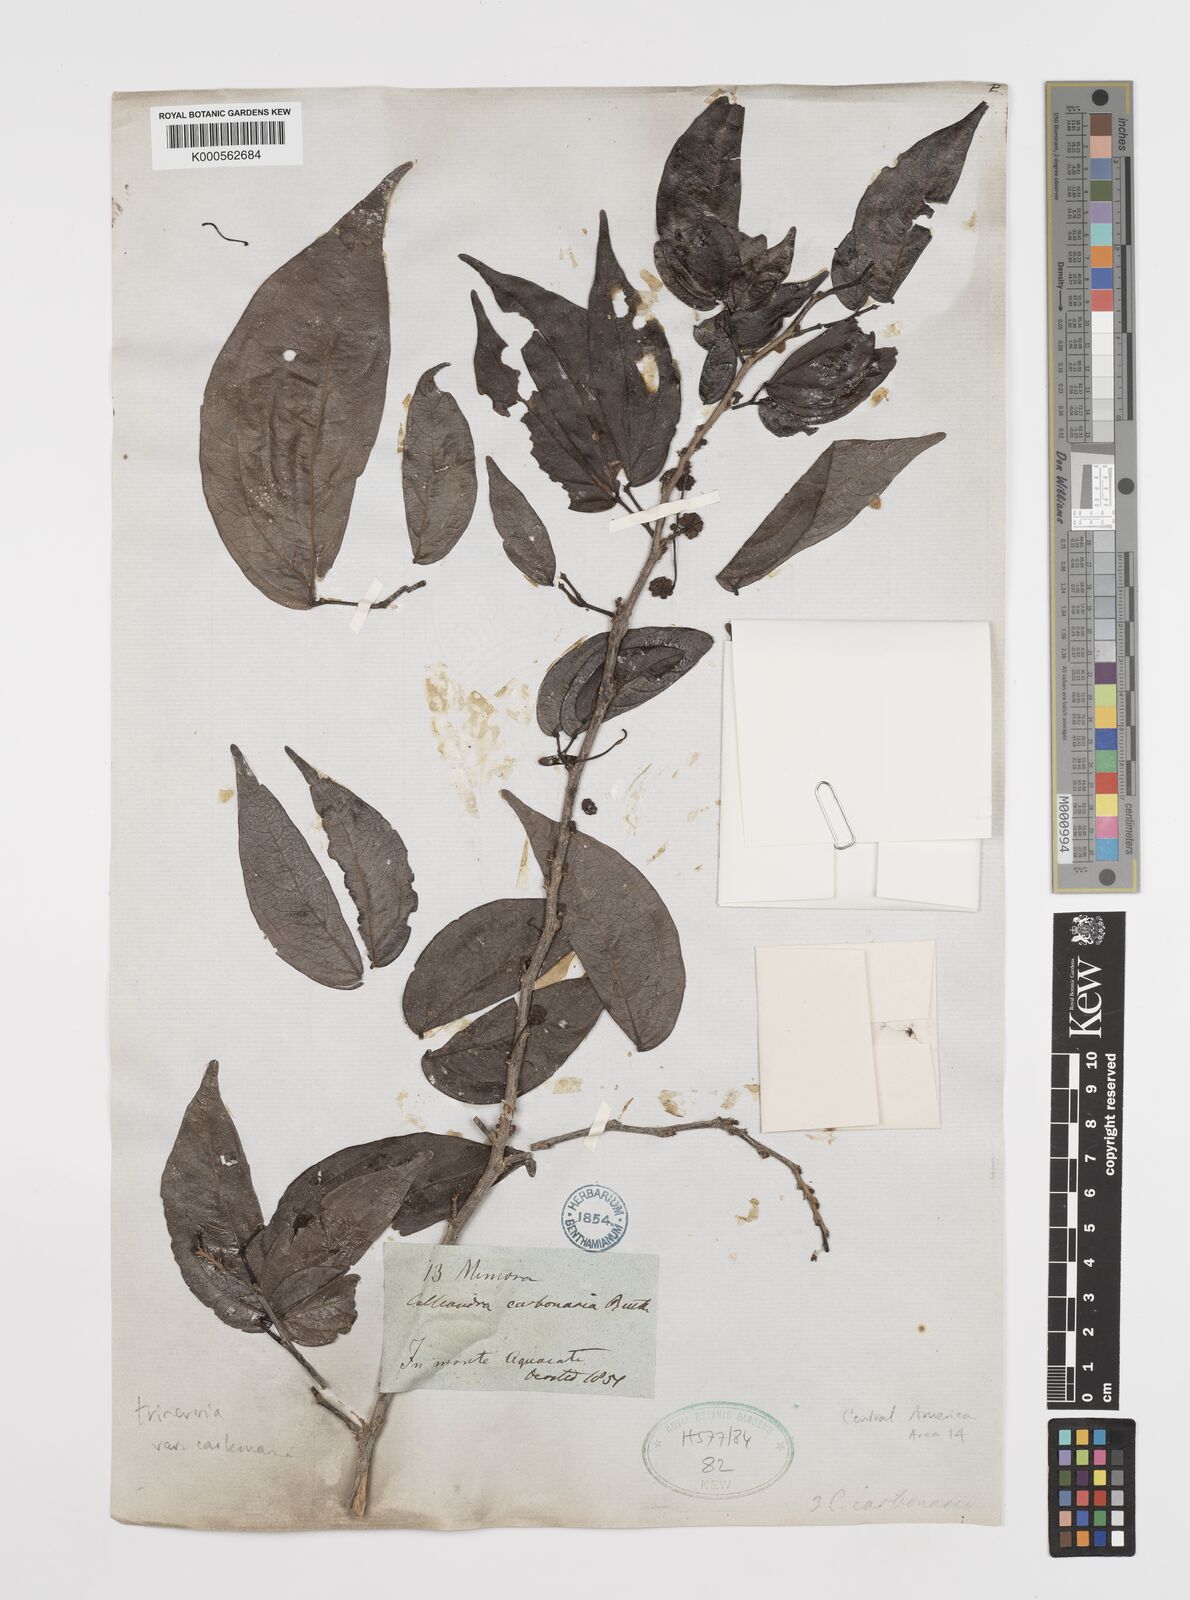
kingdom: Plantae
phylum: Tracheophyta
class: Magnoliopsida
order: Fabales
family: Fabaceae
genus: Calliandra
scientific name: Calliandra trinervia
